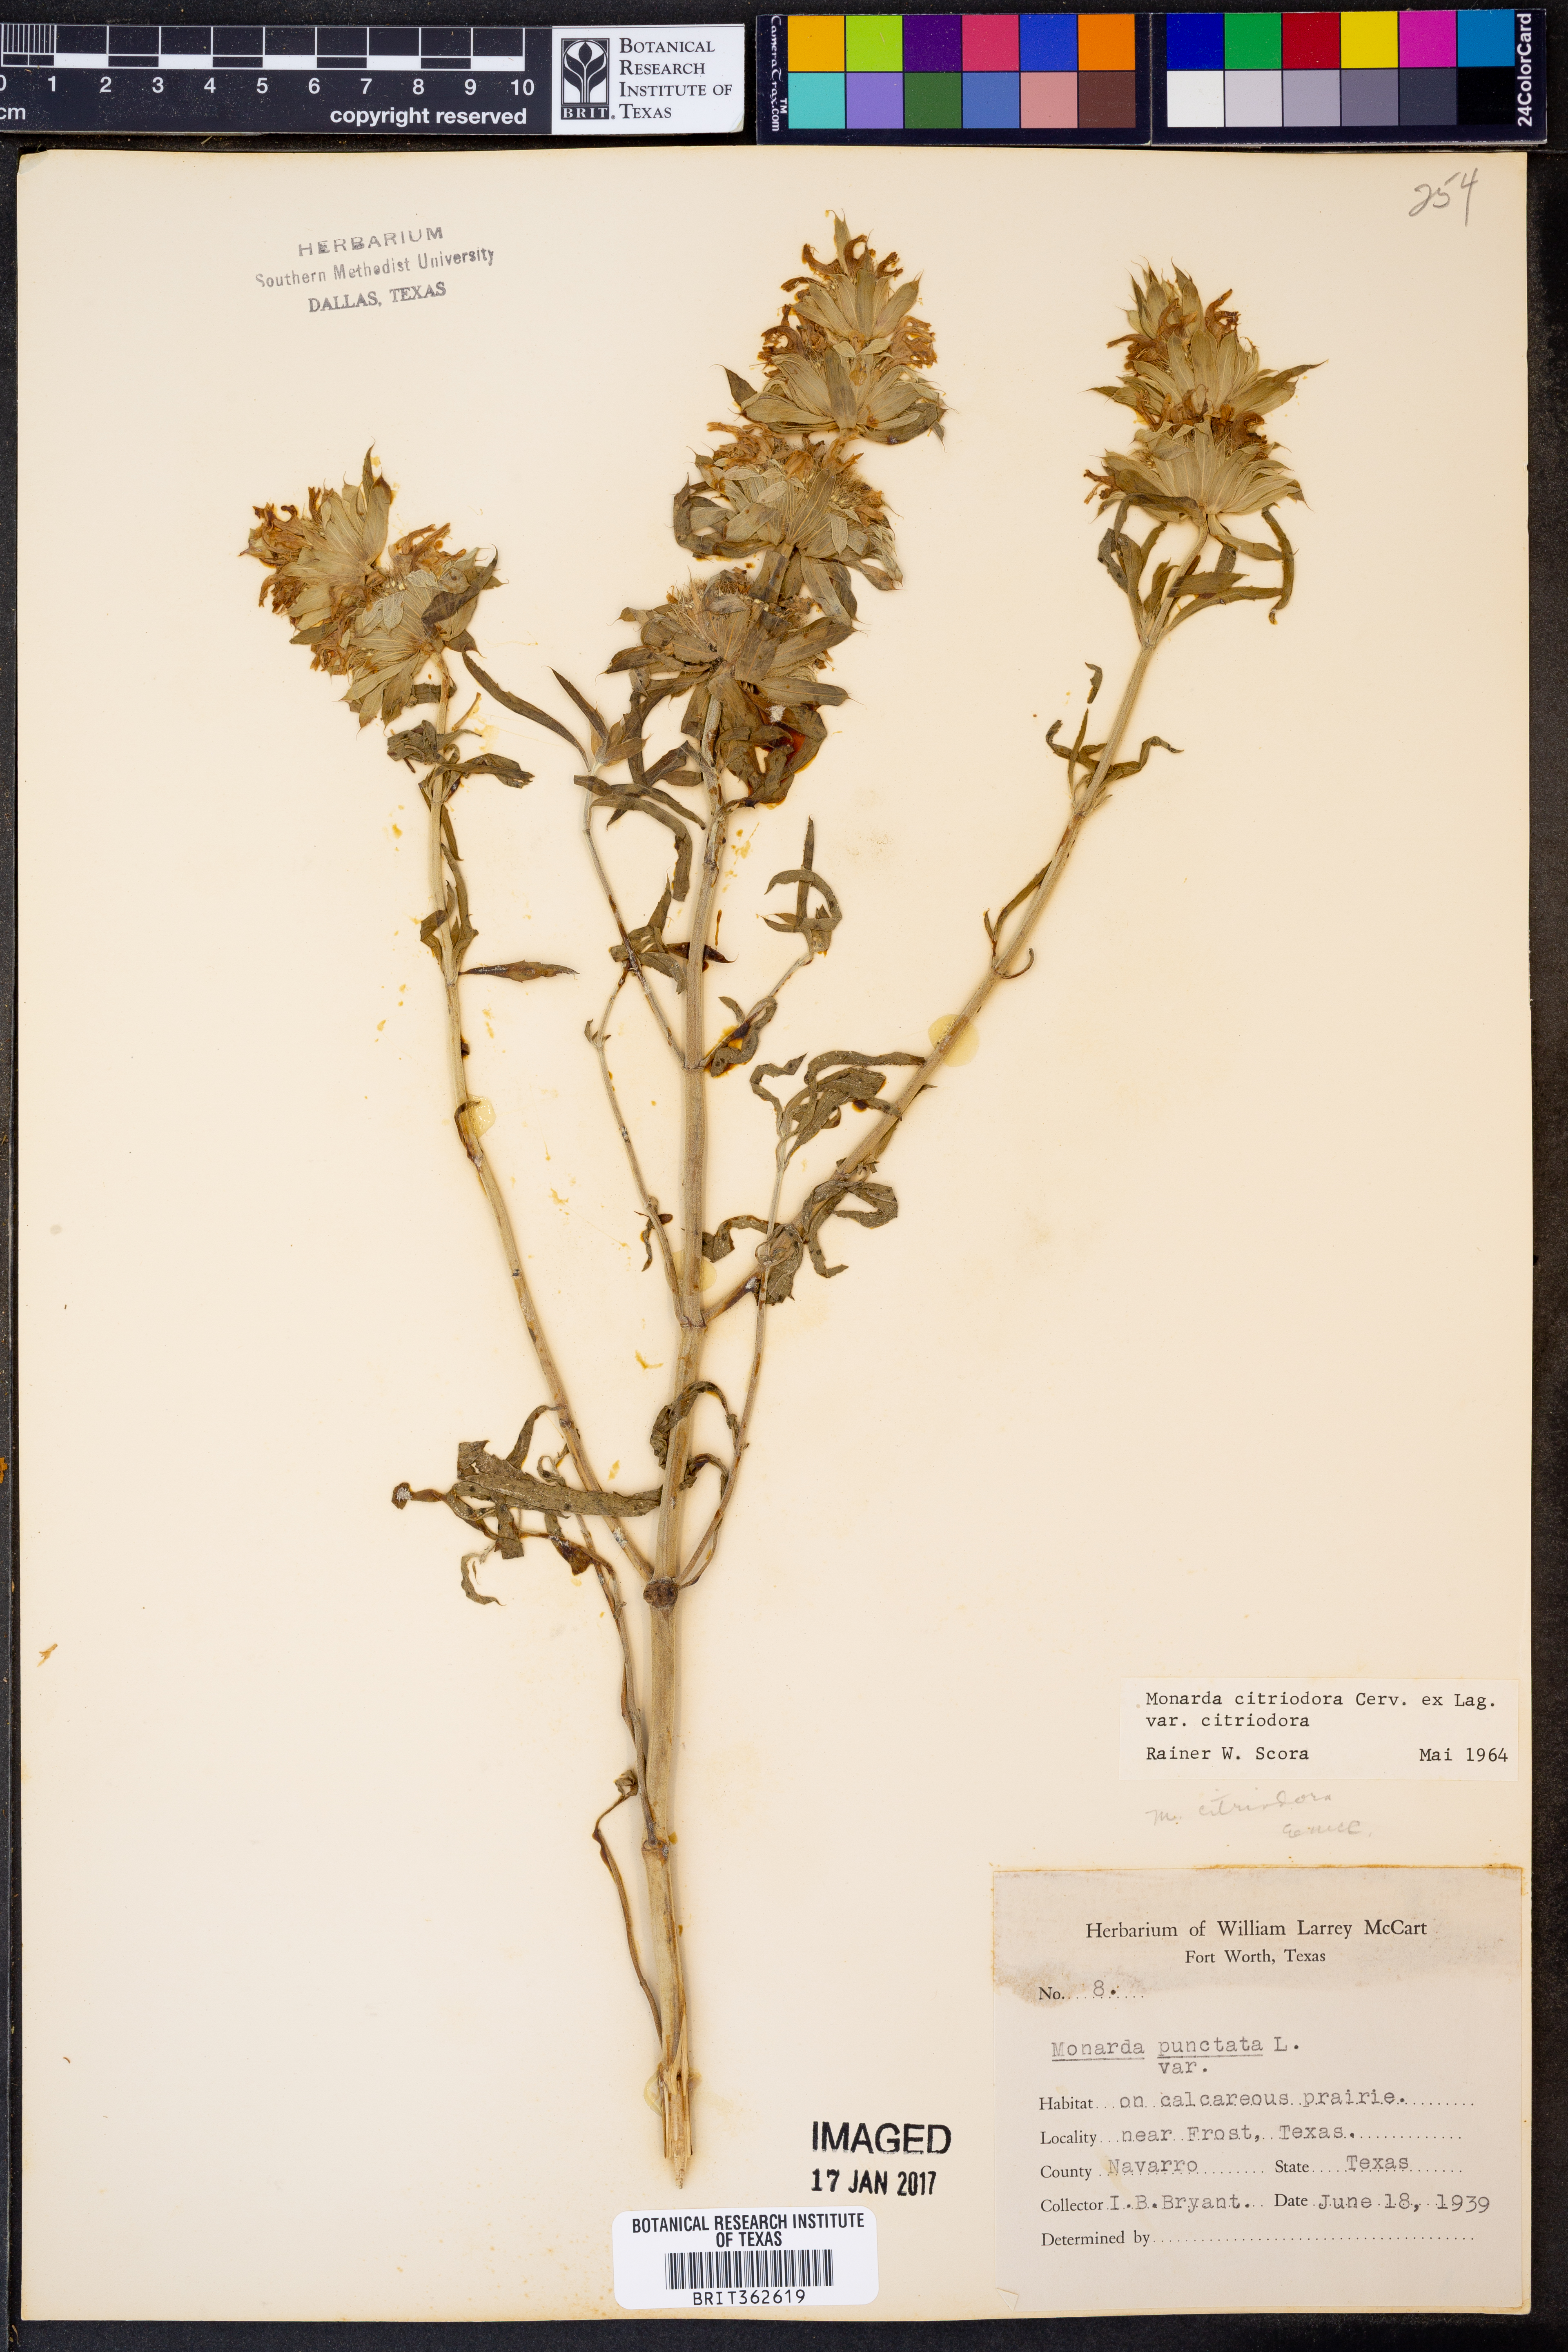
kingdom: Plantae
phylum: Tracheophyta
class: Magnoliopsida
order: Lamiales
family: Lamiaceae
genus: Monarda
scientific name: Monarda citriodora
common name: Lemon beebalm
